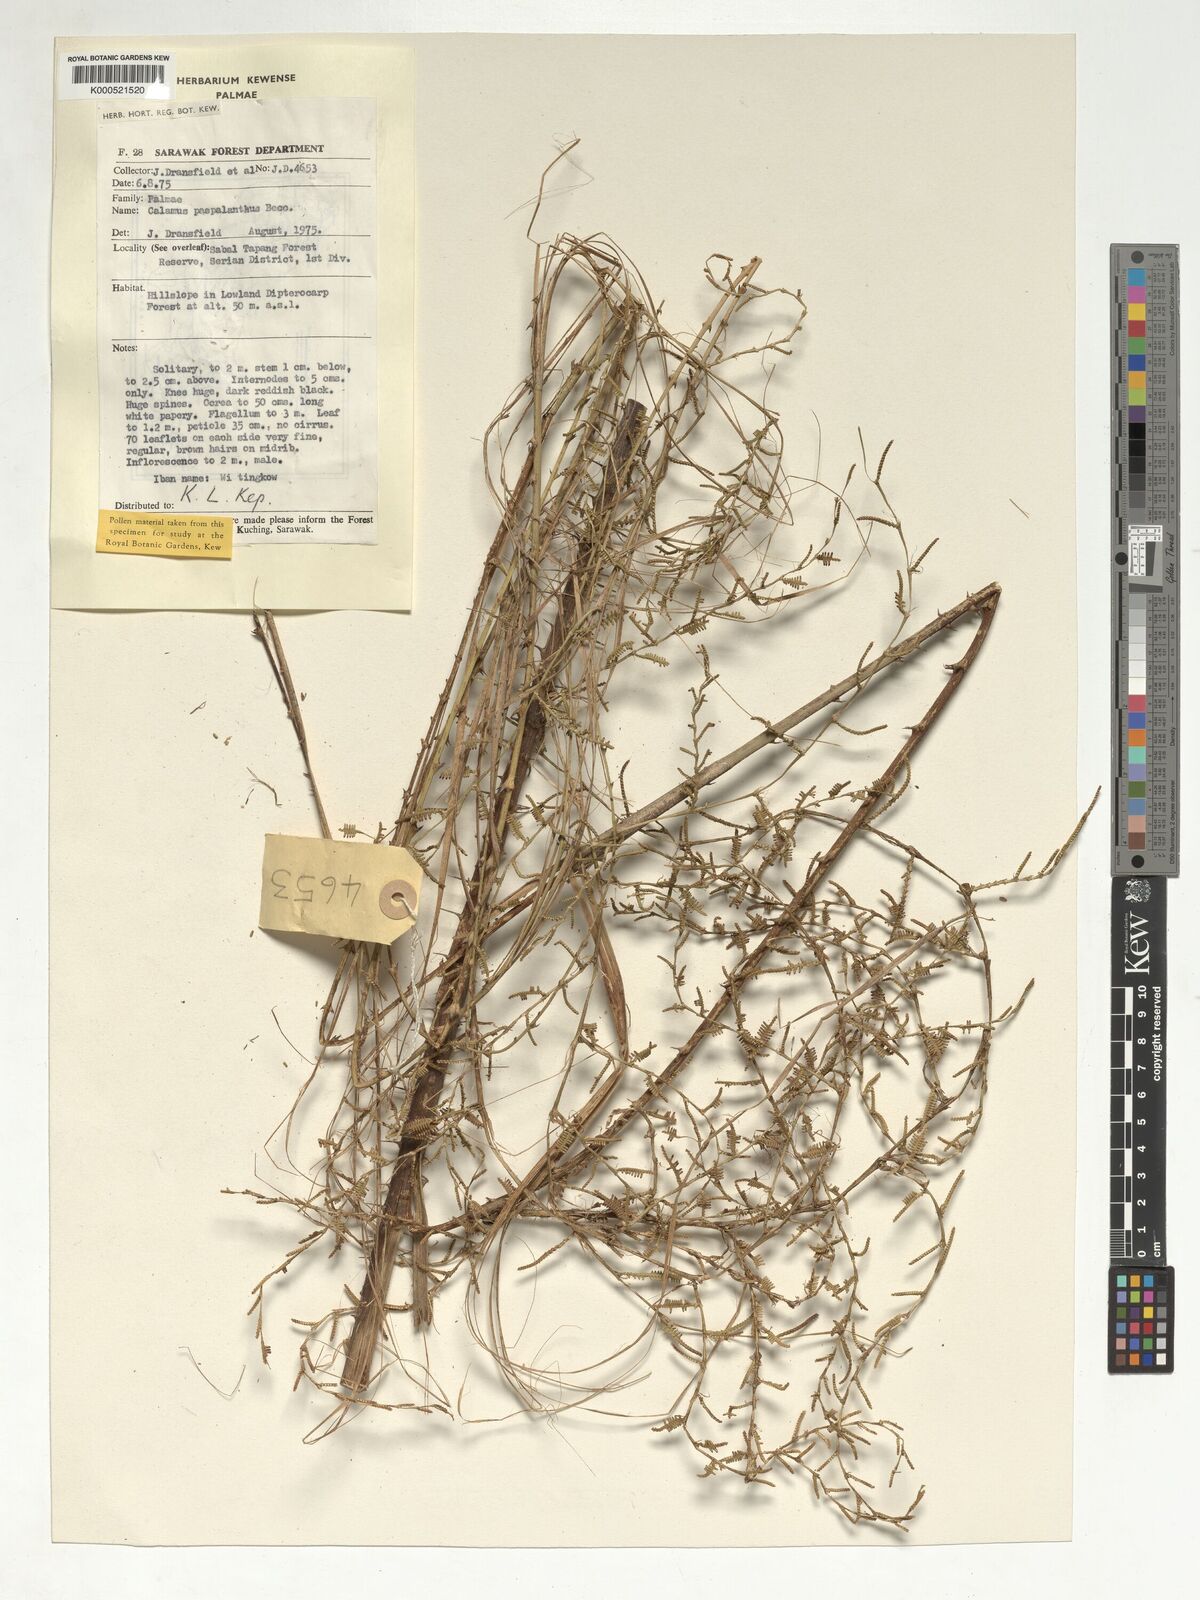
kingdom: Plantae
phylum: Tracheophyta
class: Liliopsida
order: Arecales
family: Arecaceae
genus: Calamus
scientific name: Calamus paspalanthus
